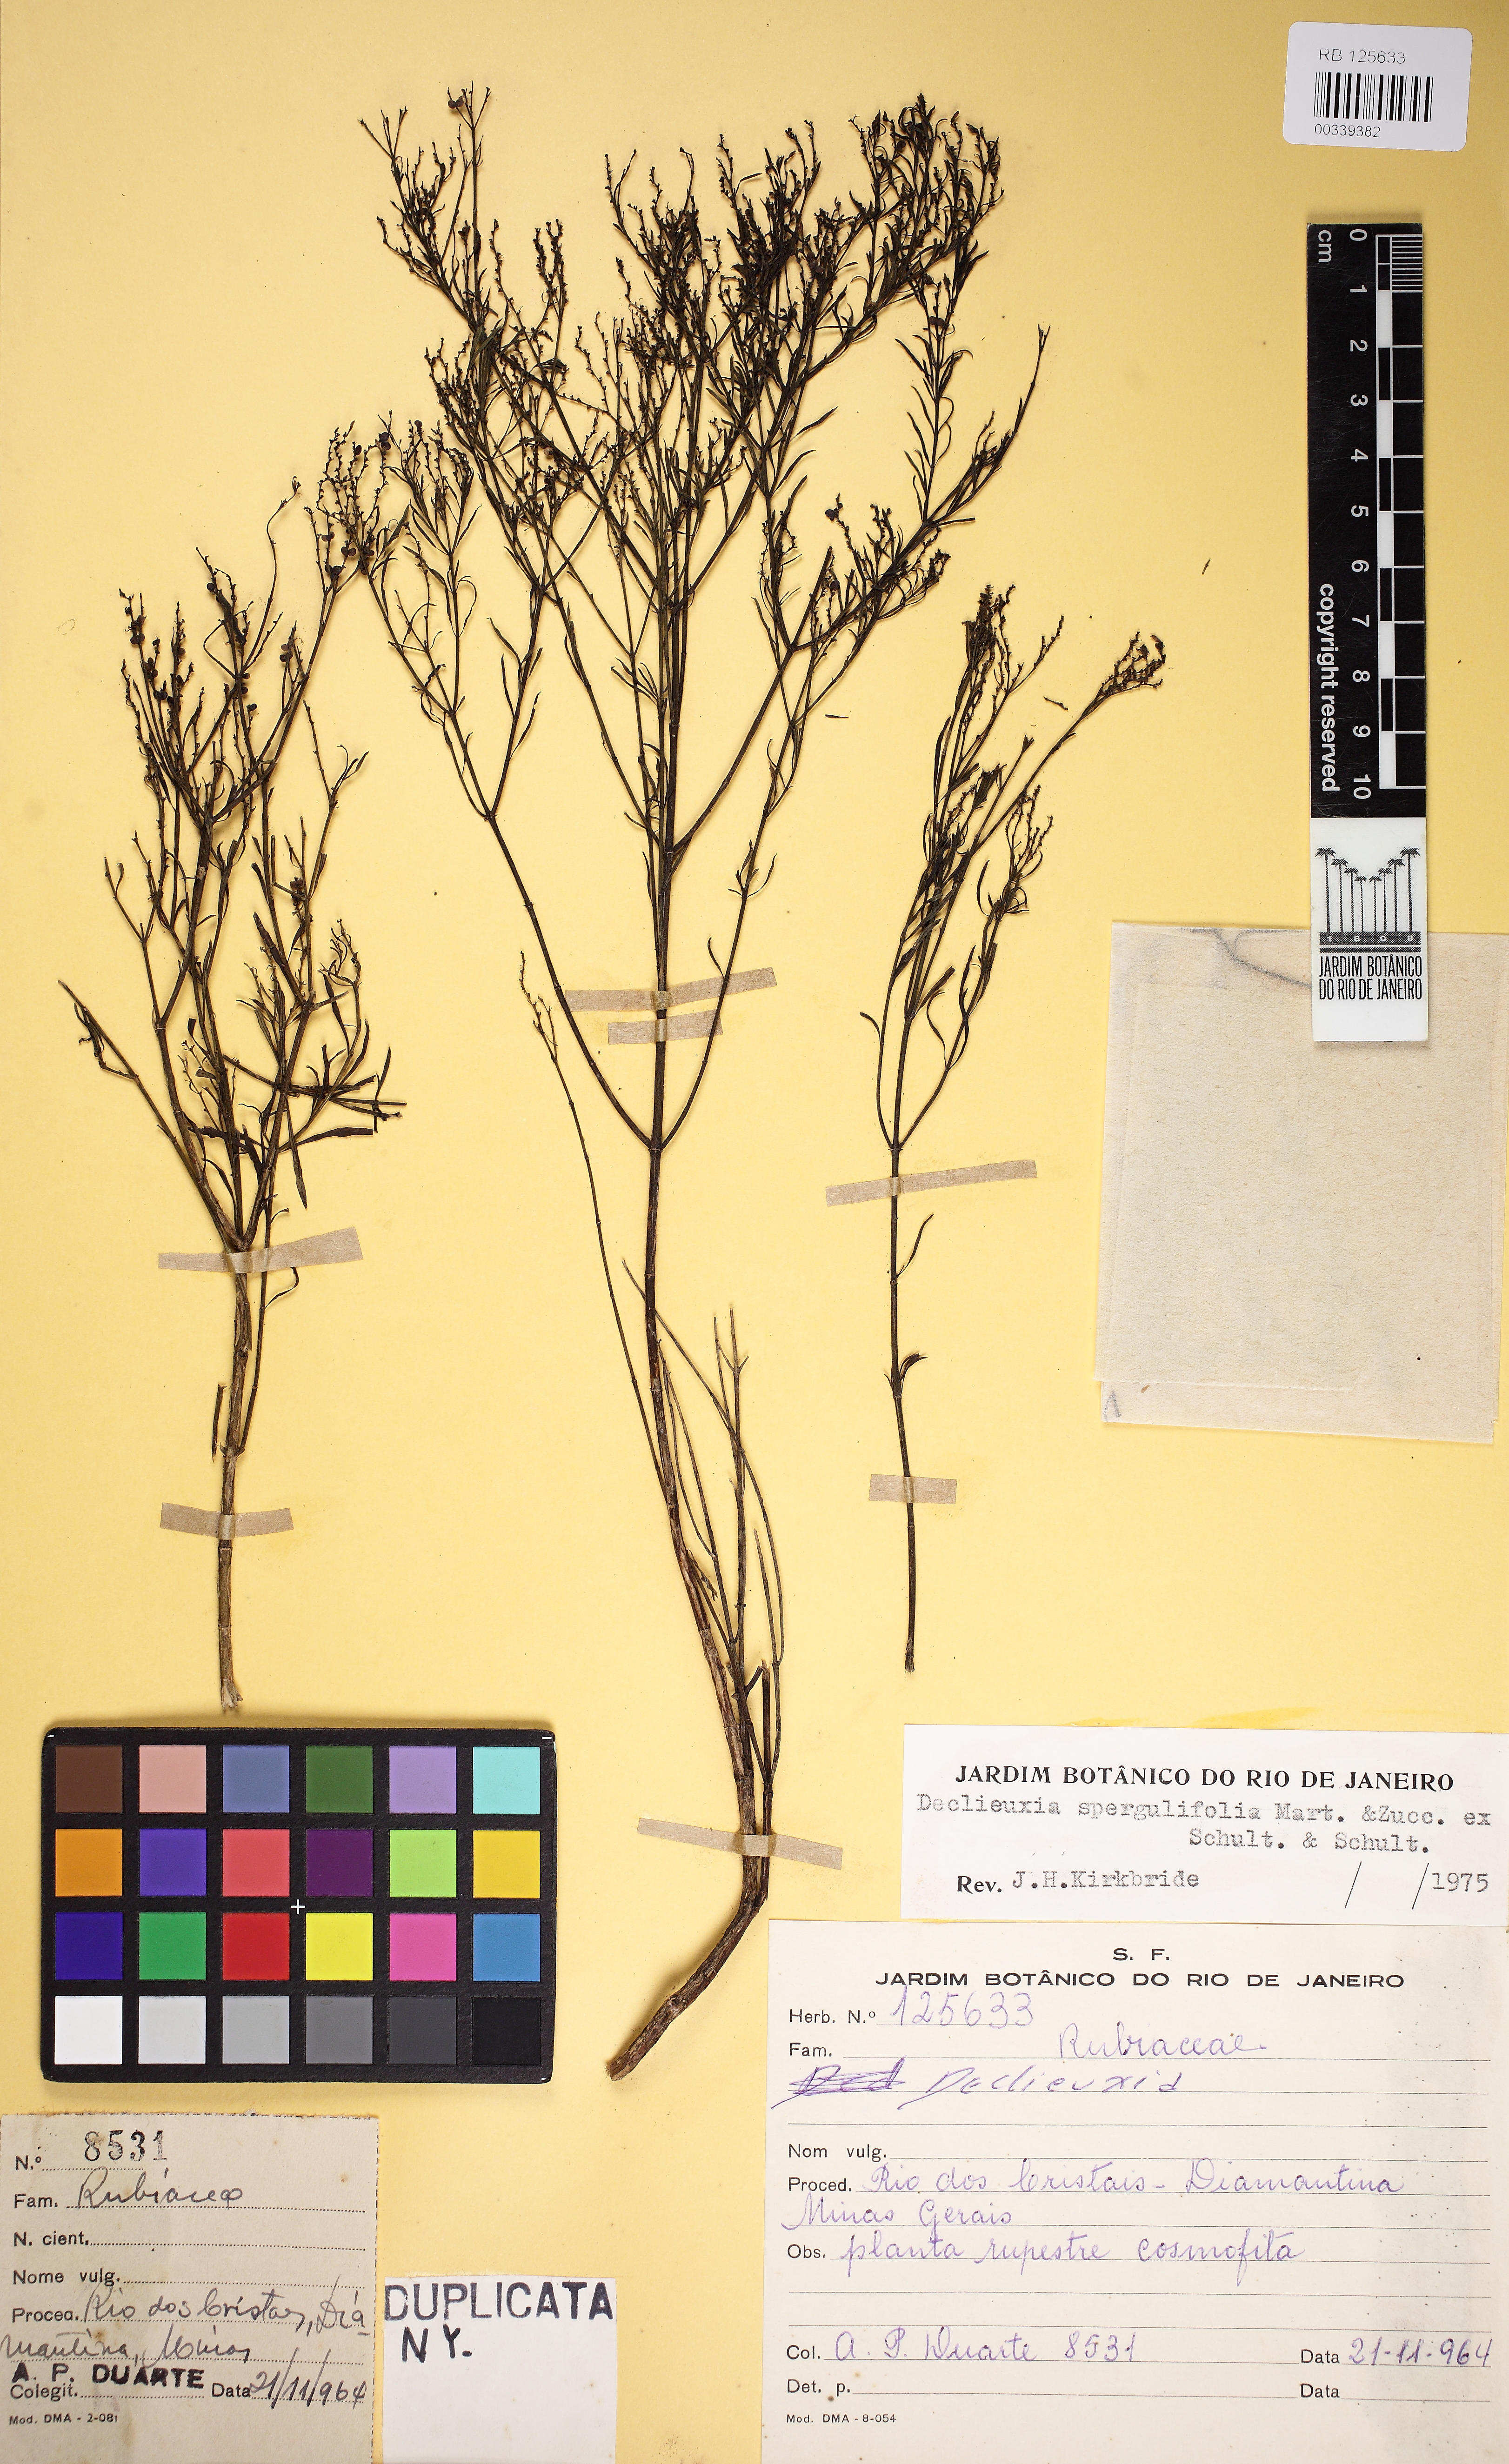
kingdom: Plantae
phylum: Tracheophyta
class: Magnoliopsida
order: Gentianales
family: Rubiaceae
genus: Declieuxia
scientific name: Declieuxia spergulifolia
